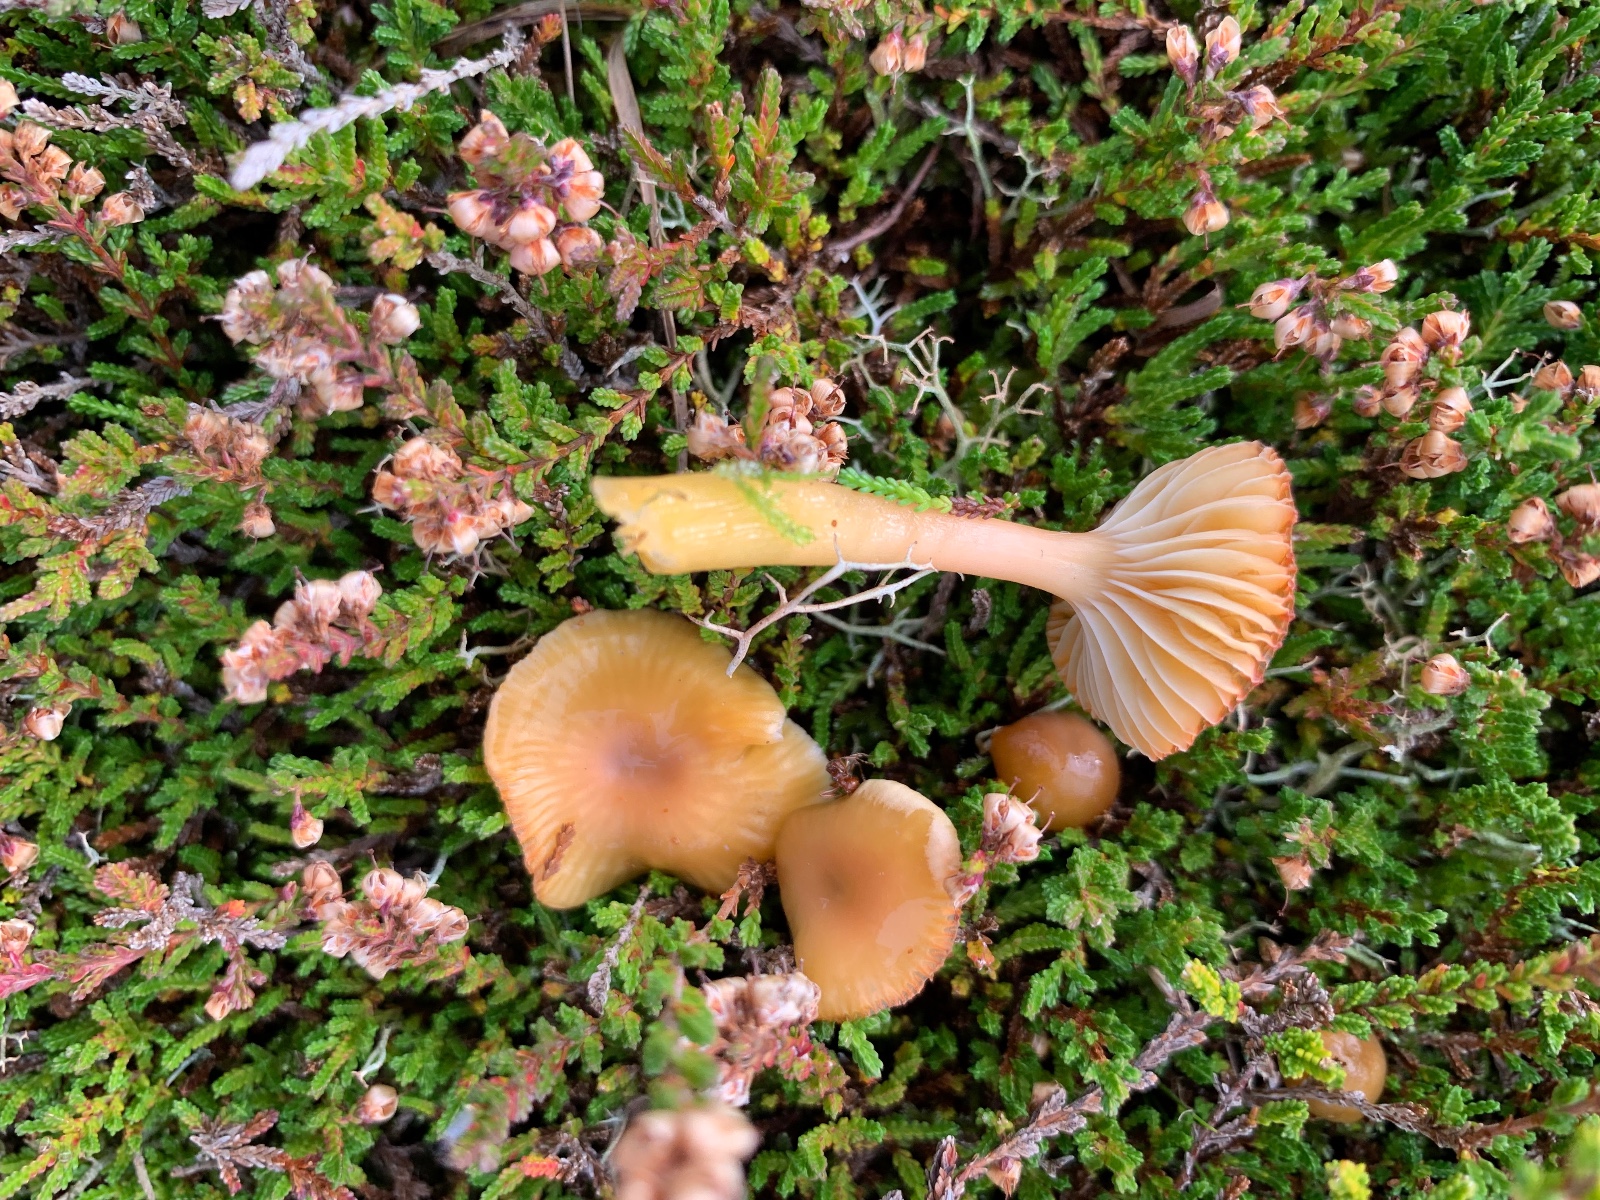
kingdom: Fungi
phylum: Basidiomycota
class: Agaricomycetes
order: Agaricales
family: Hygrophoraceae
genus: Gliophorus
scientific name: Gliophorus laetus
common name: brusk-vokshat
